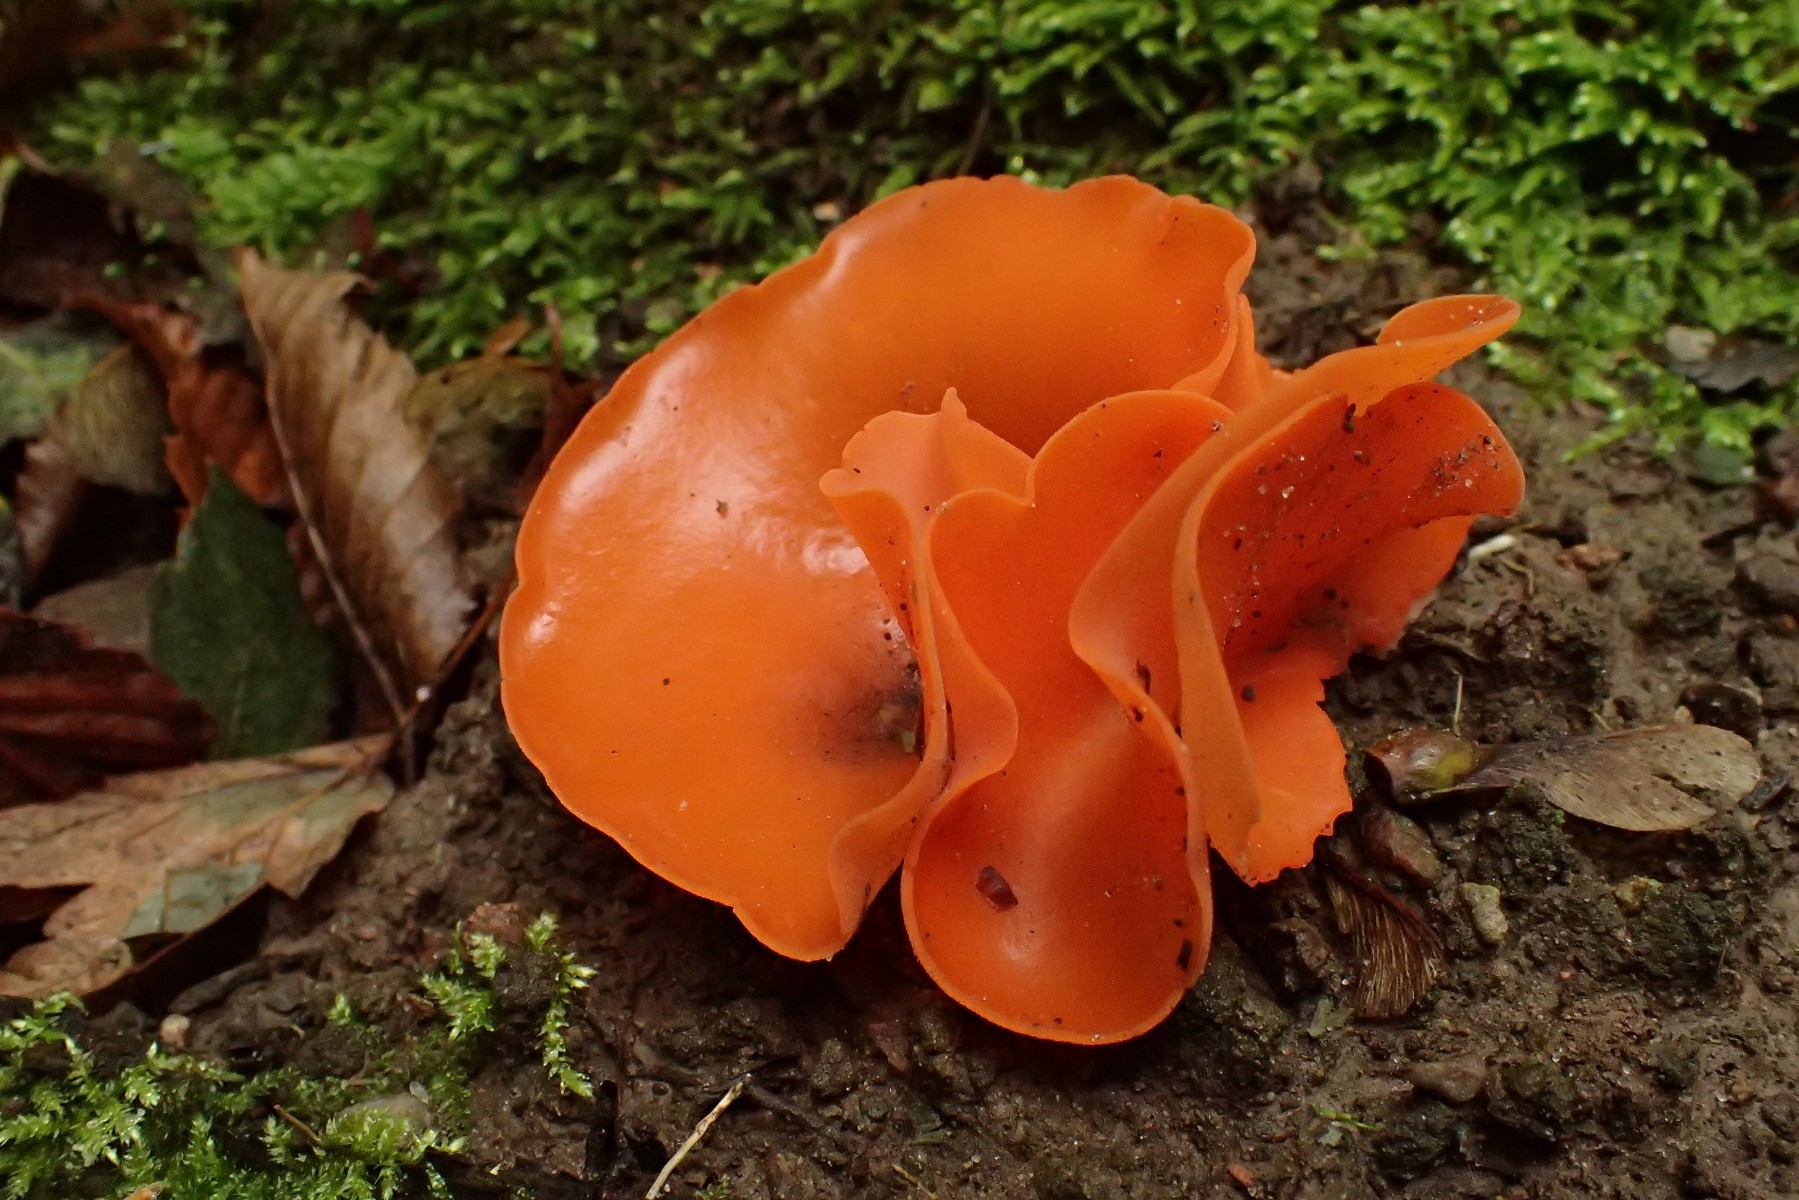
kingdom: Fungi
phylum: Ascomycota
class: Pezizomycetes
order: Pezizales
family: Pyronemataceae
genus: Aleuria
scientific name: Aleuria aurantia
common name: almindelig orangebæger
